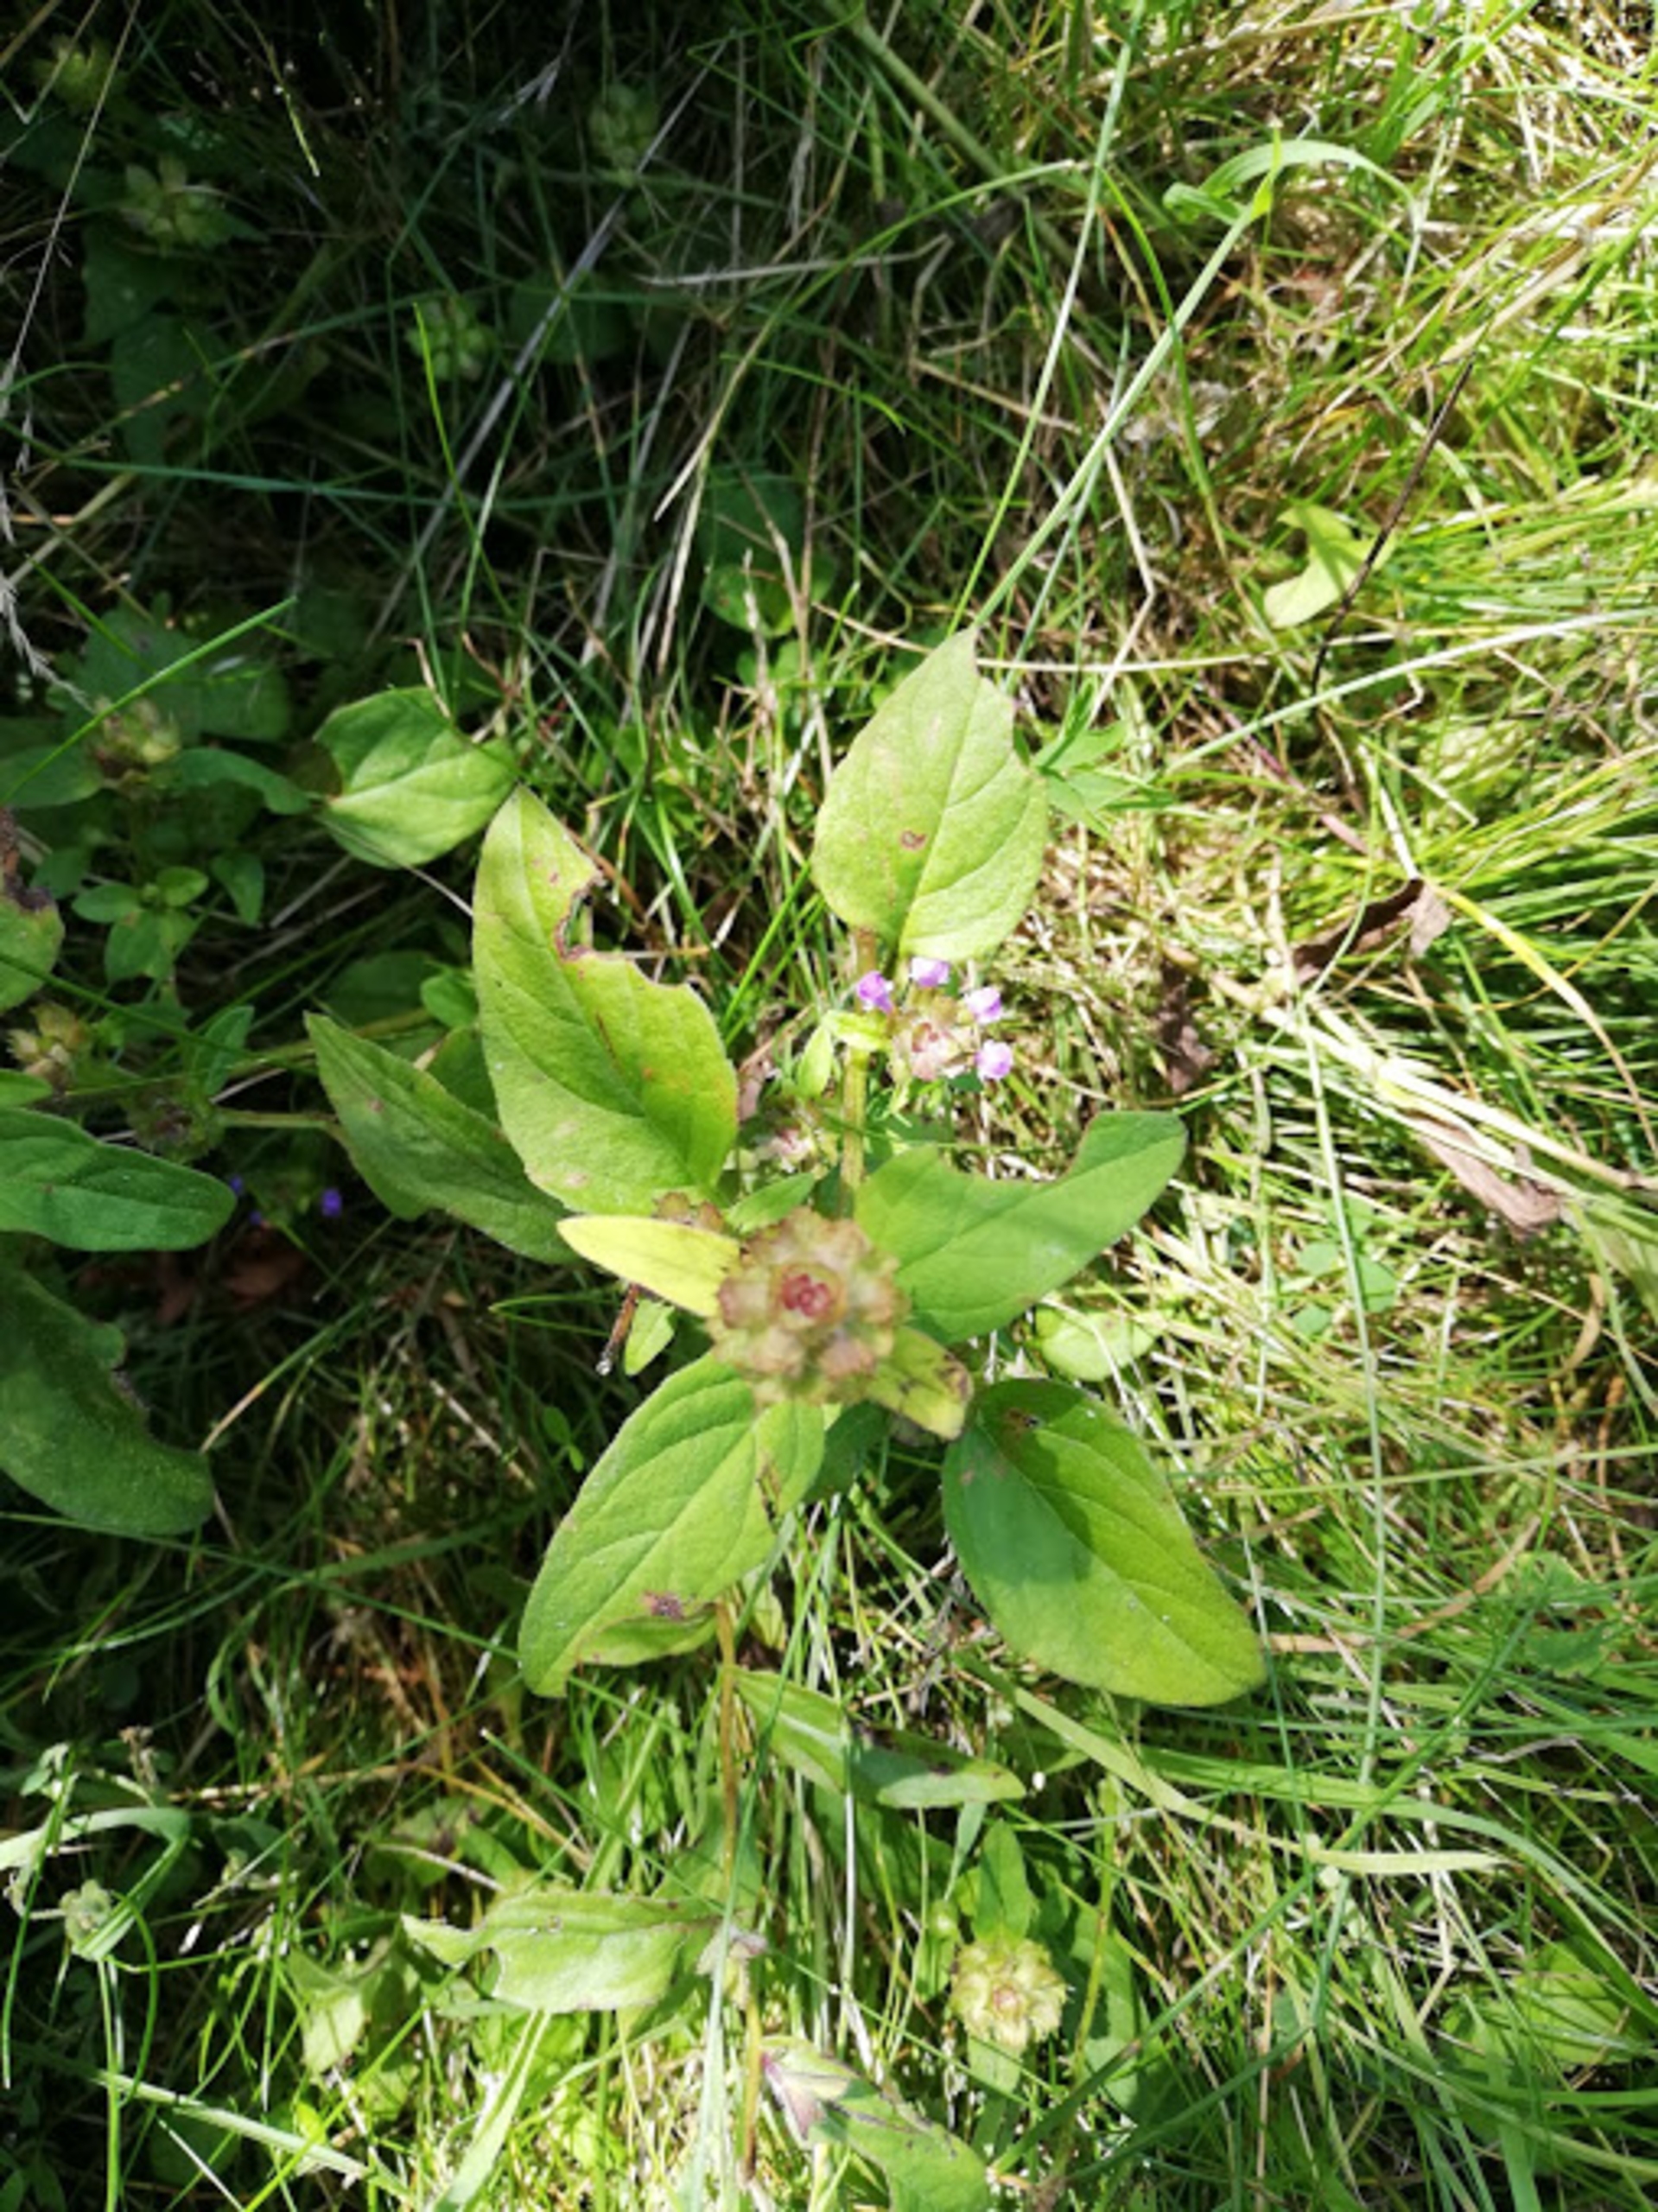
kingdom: Plantae
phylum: Tracheophyta
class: Magnoliopsida
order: Lamiales
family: Lamiaceae
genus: Prunella
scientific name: Prunella vulgaris
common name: Almindelig brunelle
